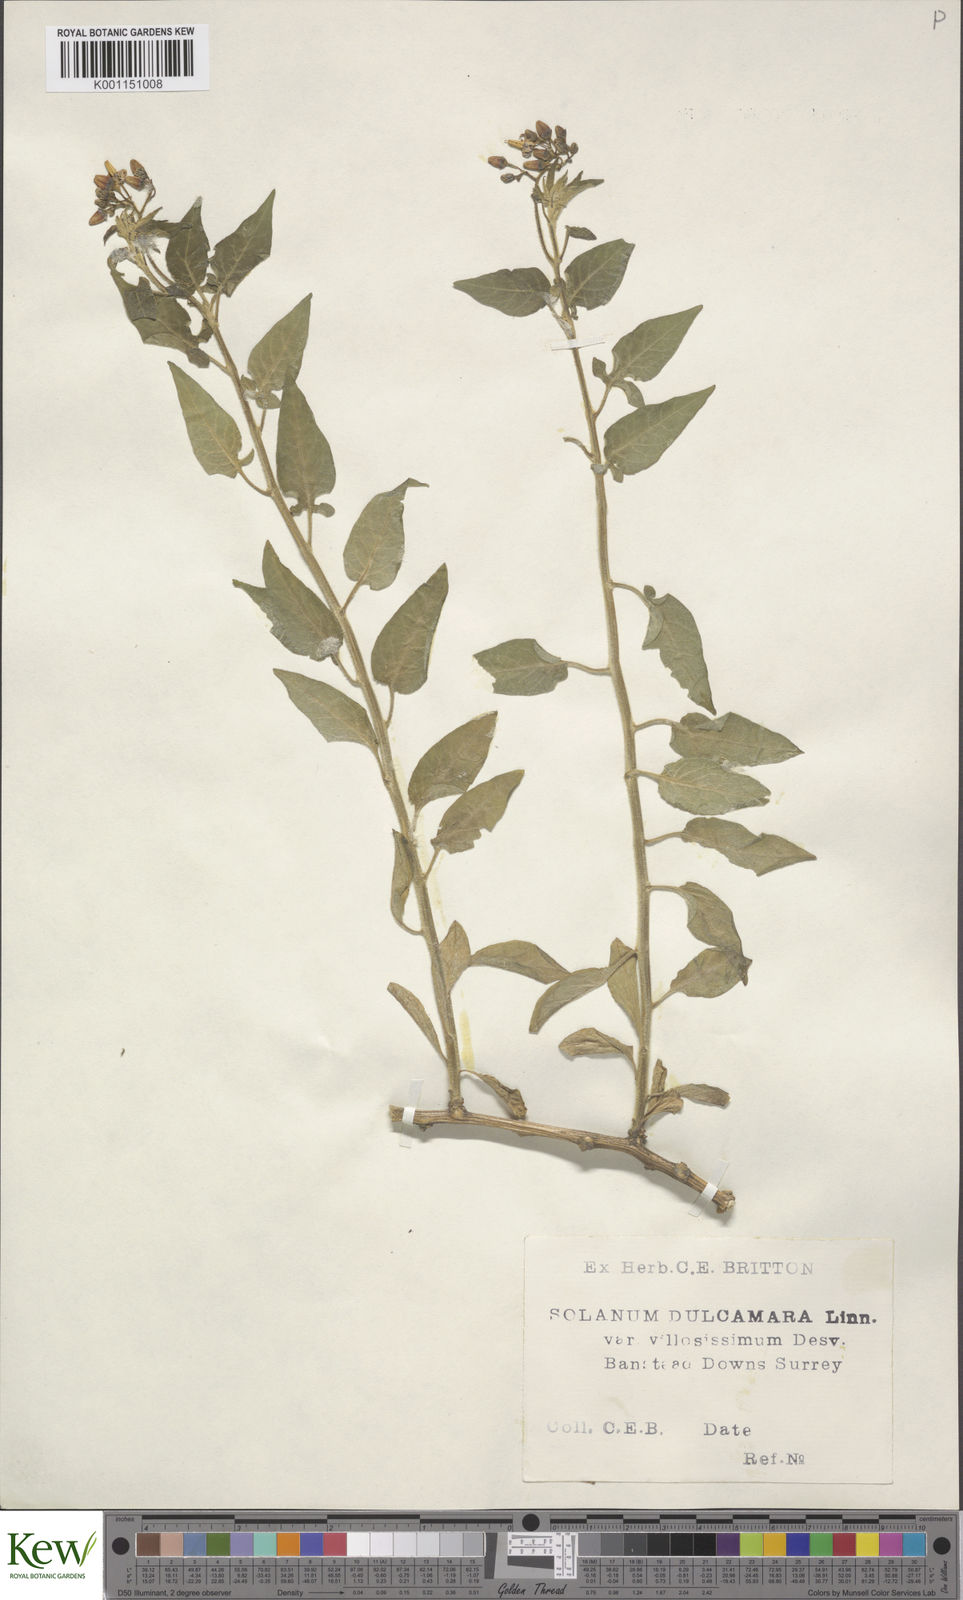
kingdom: Plantae
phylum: Tracheophyta
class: Magnoliopsida
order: Solanales
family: Solanaceae
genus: Solanum
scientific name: Solanum dulcamara
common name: Climbing nightshade
